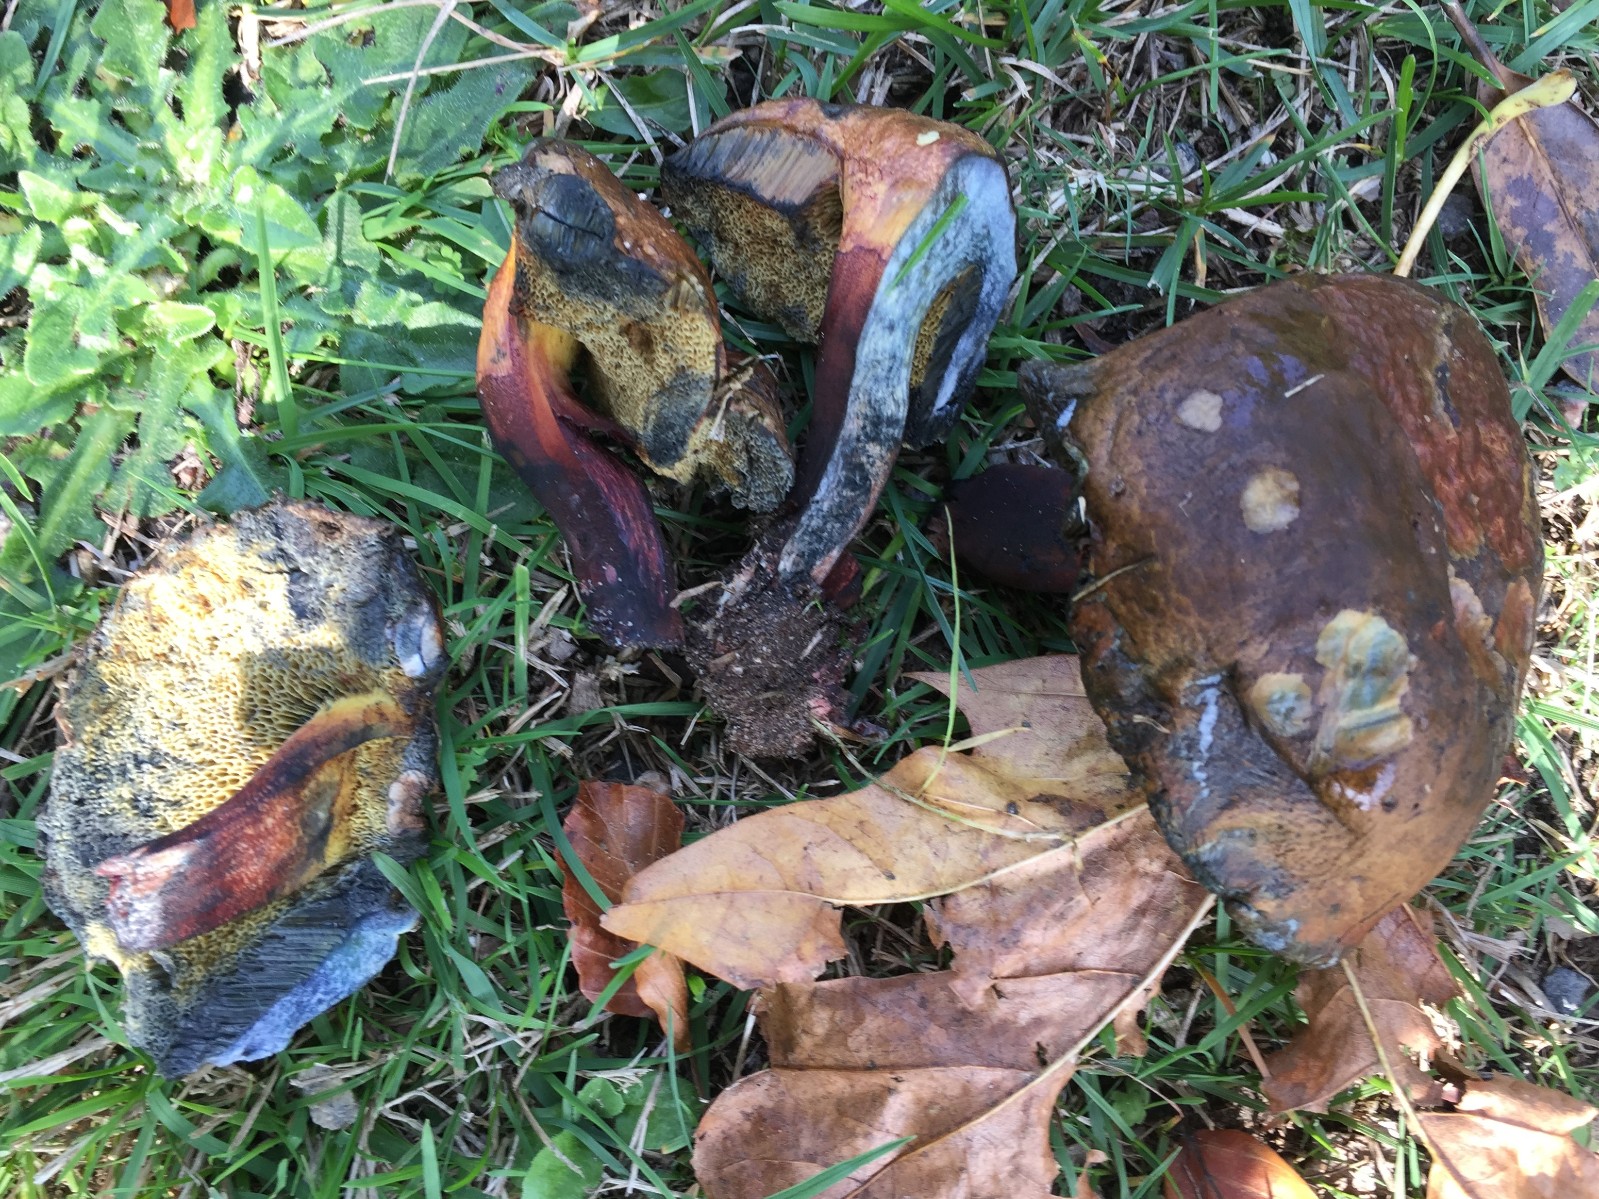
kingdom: Fungi
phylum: Basidiomycota
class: Agaricomycetes
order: Boletales
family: Boletaceae
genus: Cyanoboletus
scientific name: Cyanoboletus pulverulentus
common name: sortblånende rørhat
